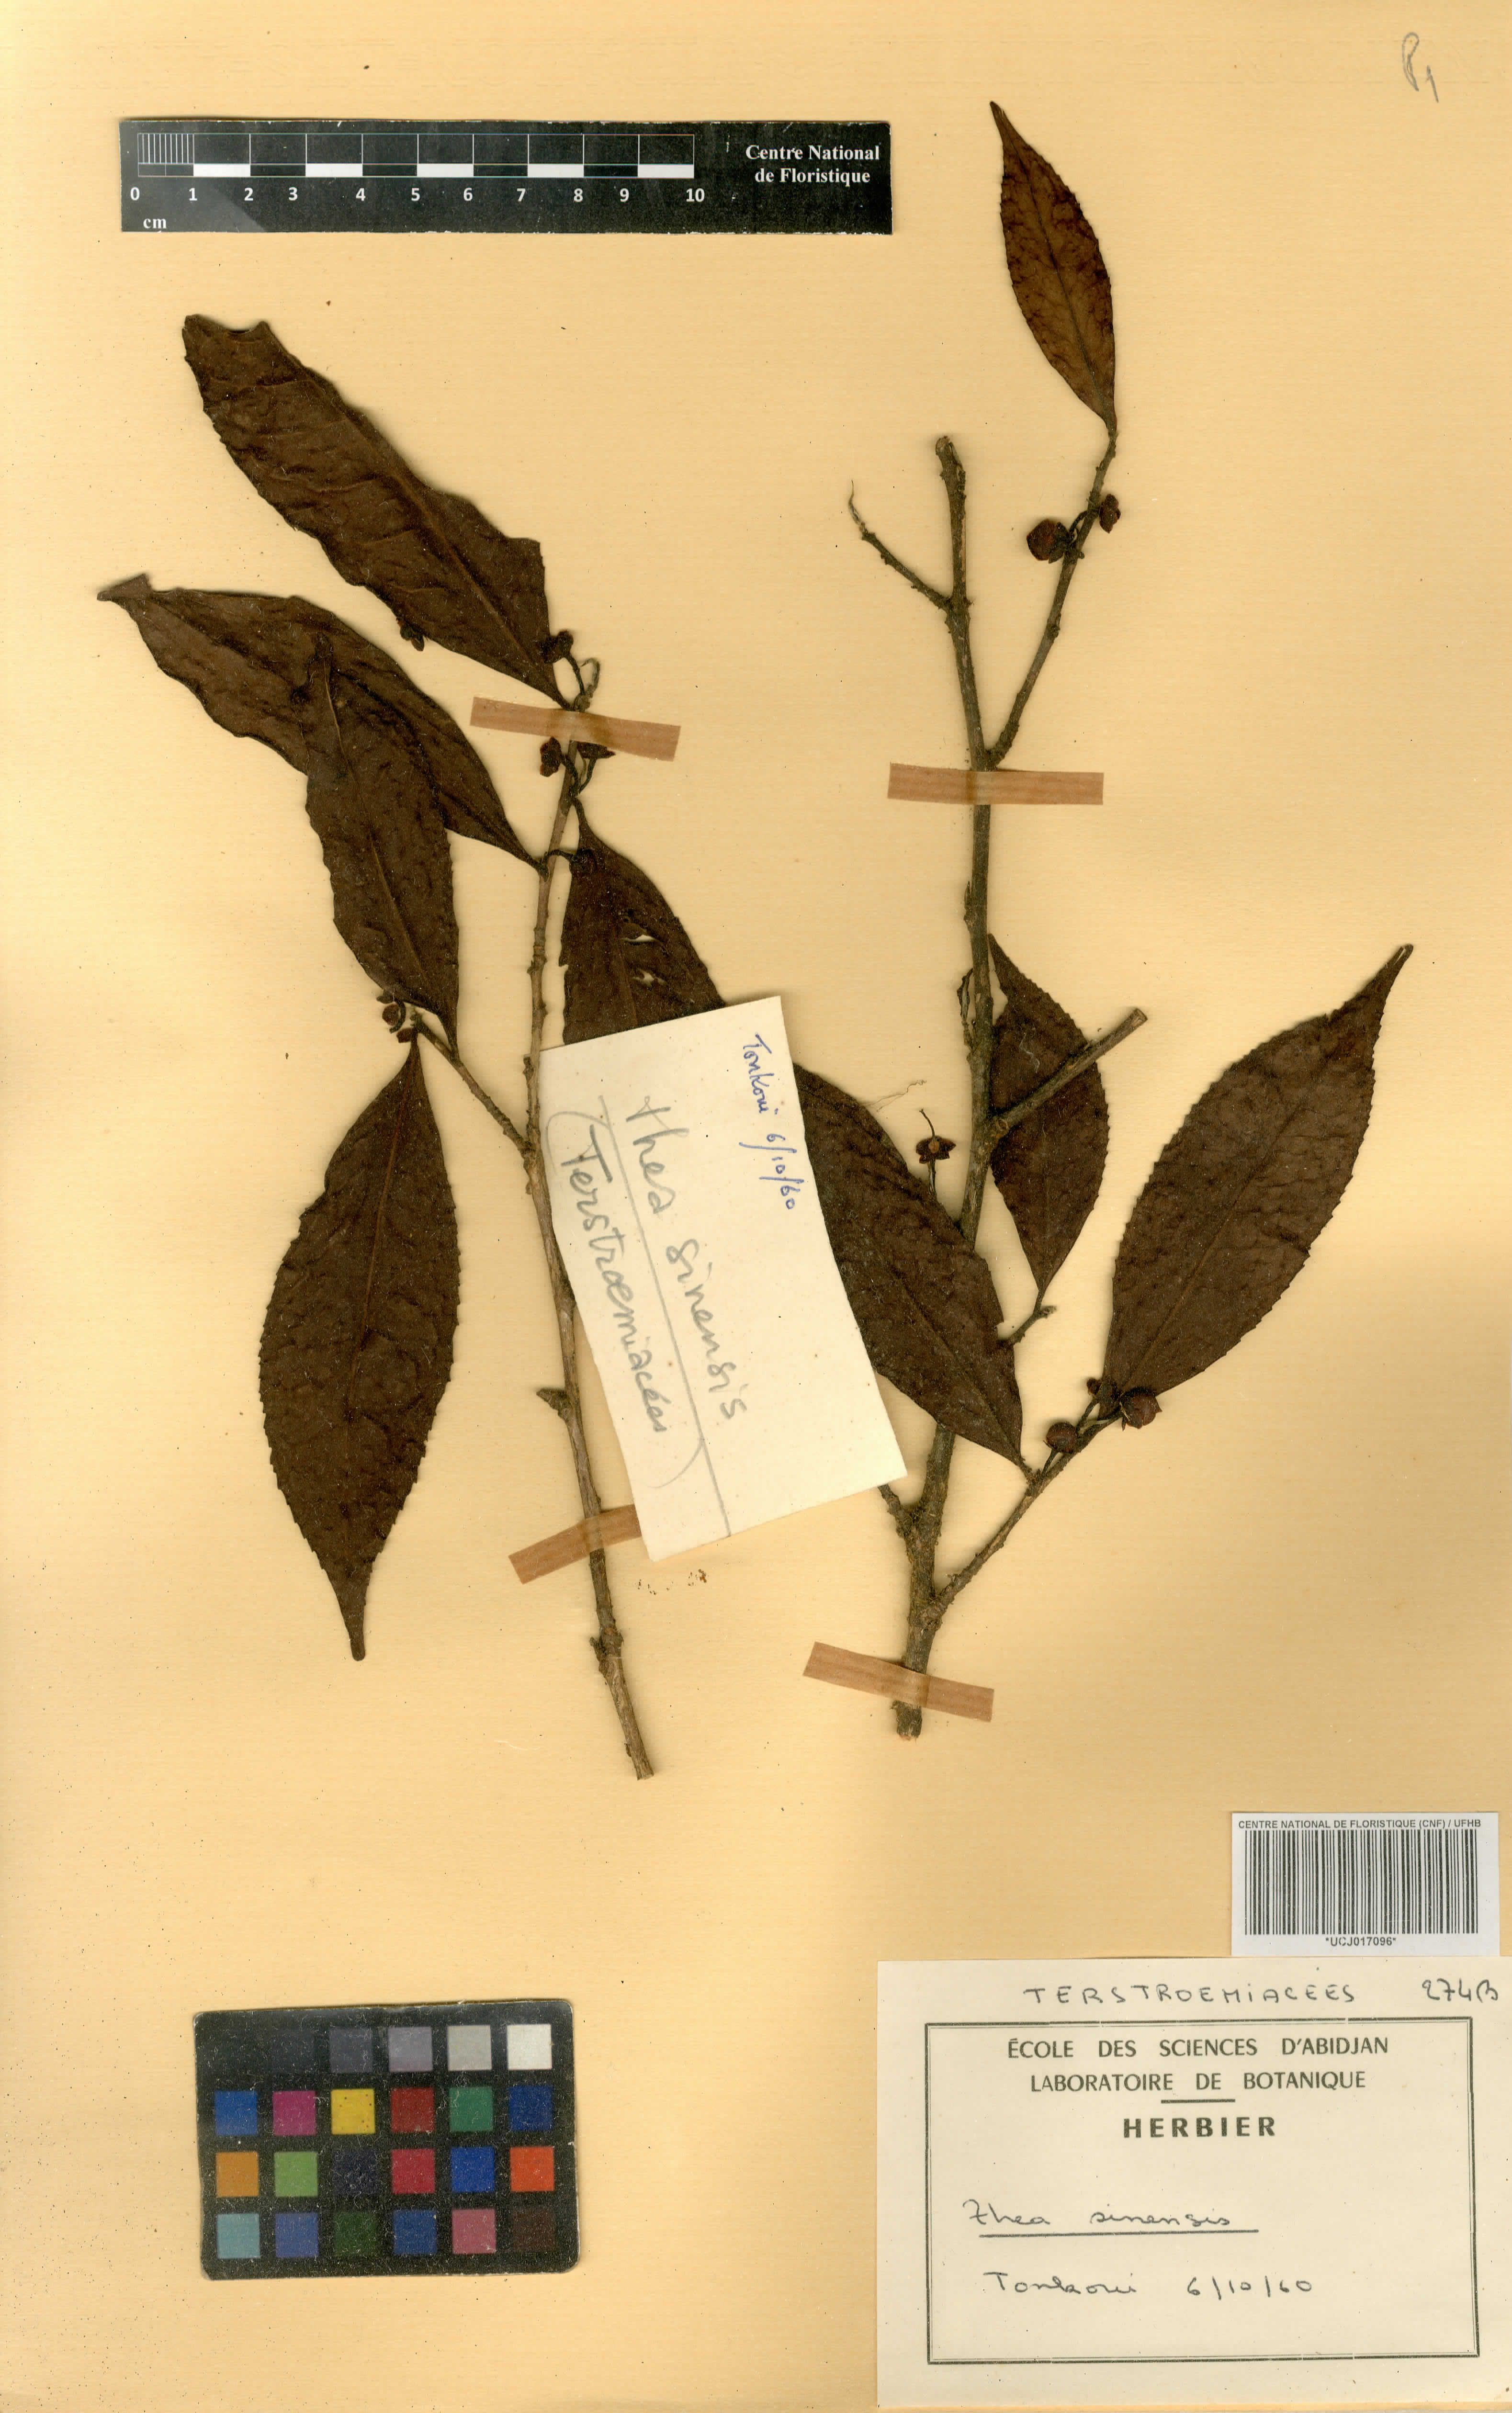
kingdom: Plantae
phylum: Tracheophyta
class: Magnoliopsida
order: Ericales
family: Theaceae
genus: Camellia
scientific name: Camellia sinensis
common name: Tea
